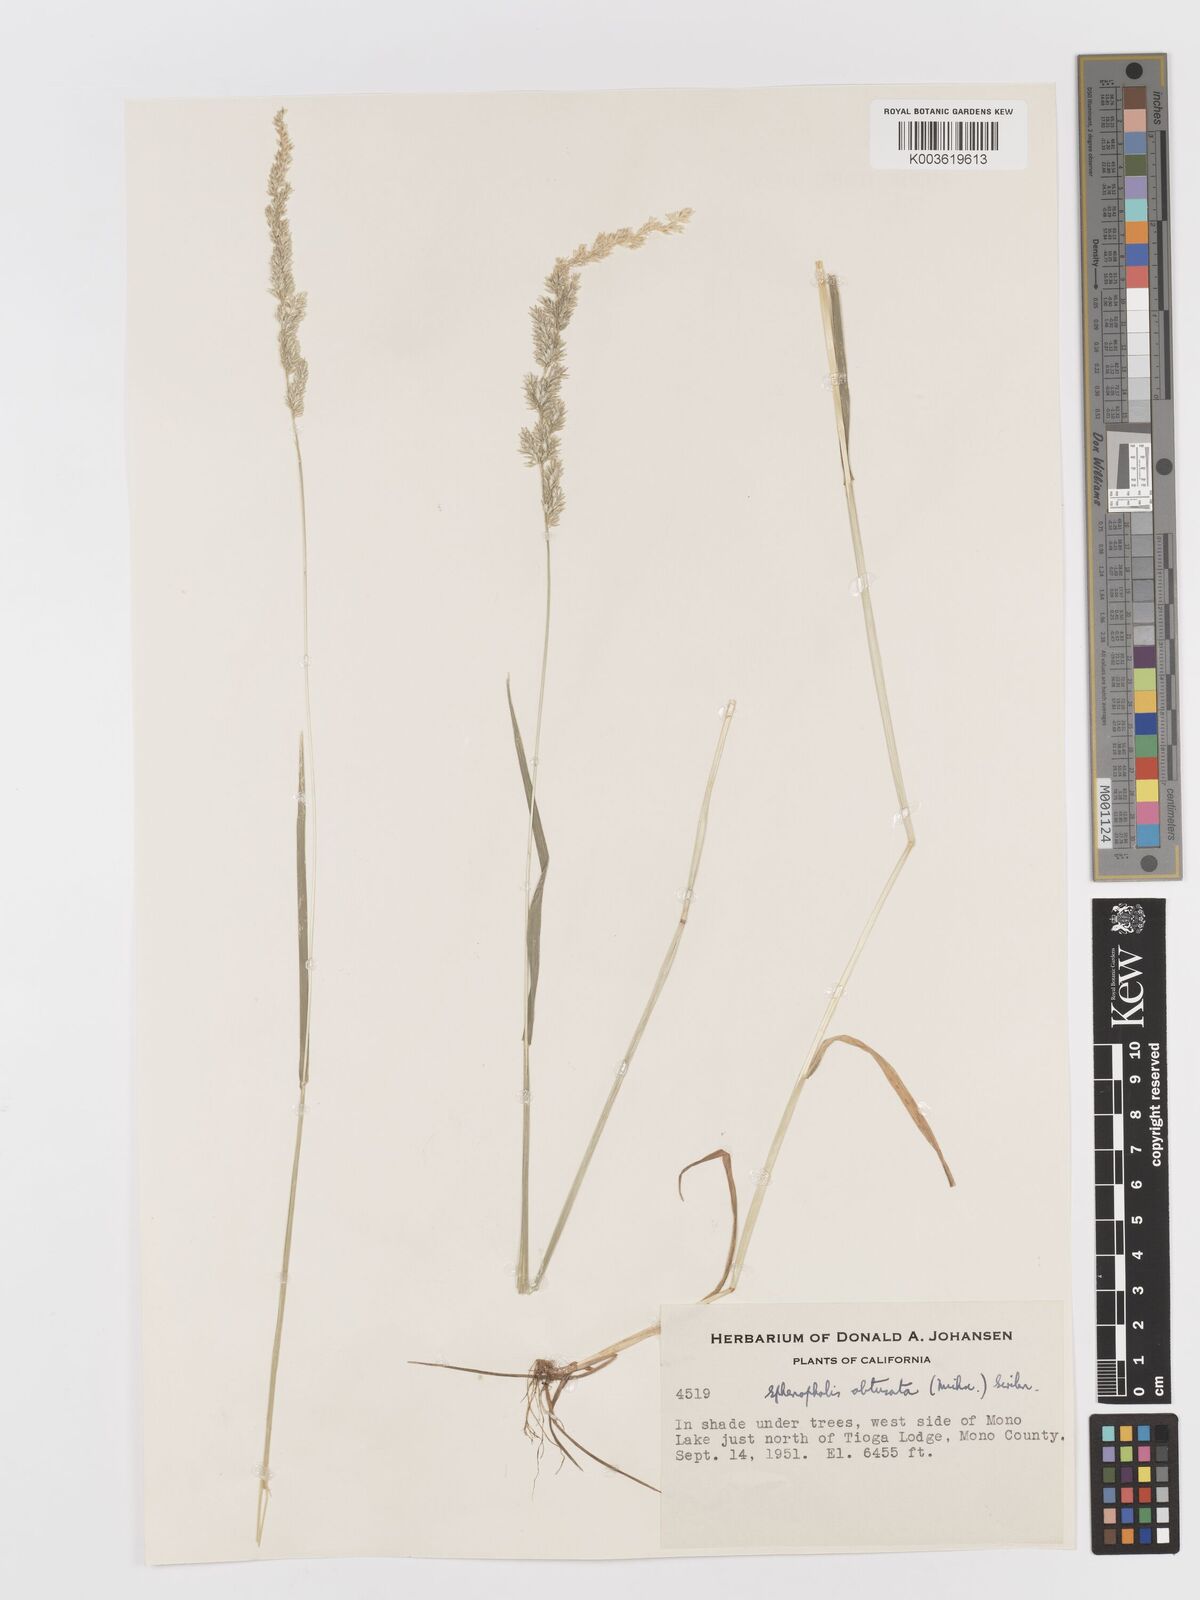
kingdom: Plantae
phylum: Tracheophyta
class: Liliopsida
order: Poales
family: Poaceae
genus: Sphenopholis
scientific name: Sphenopholis obtusata
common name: Prairie grass
